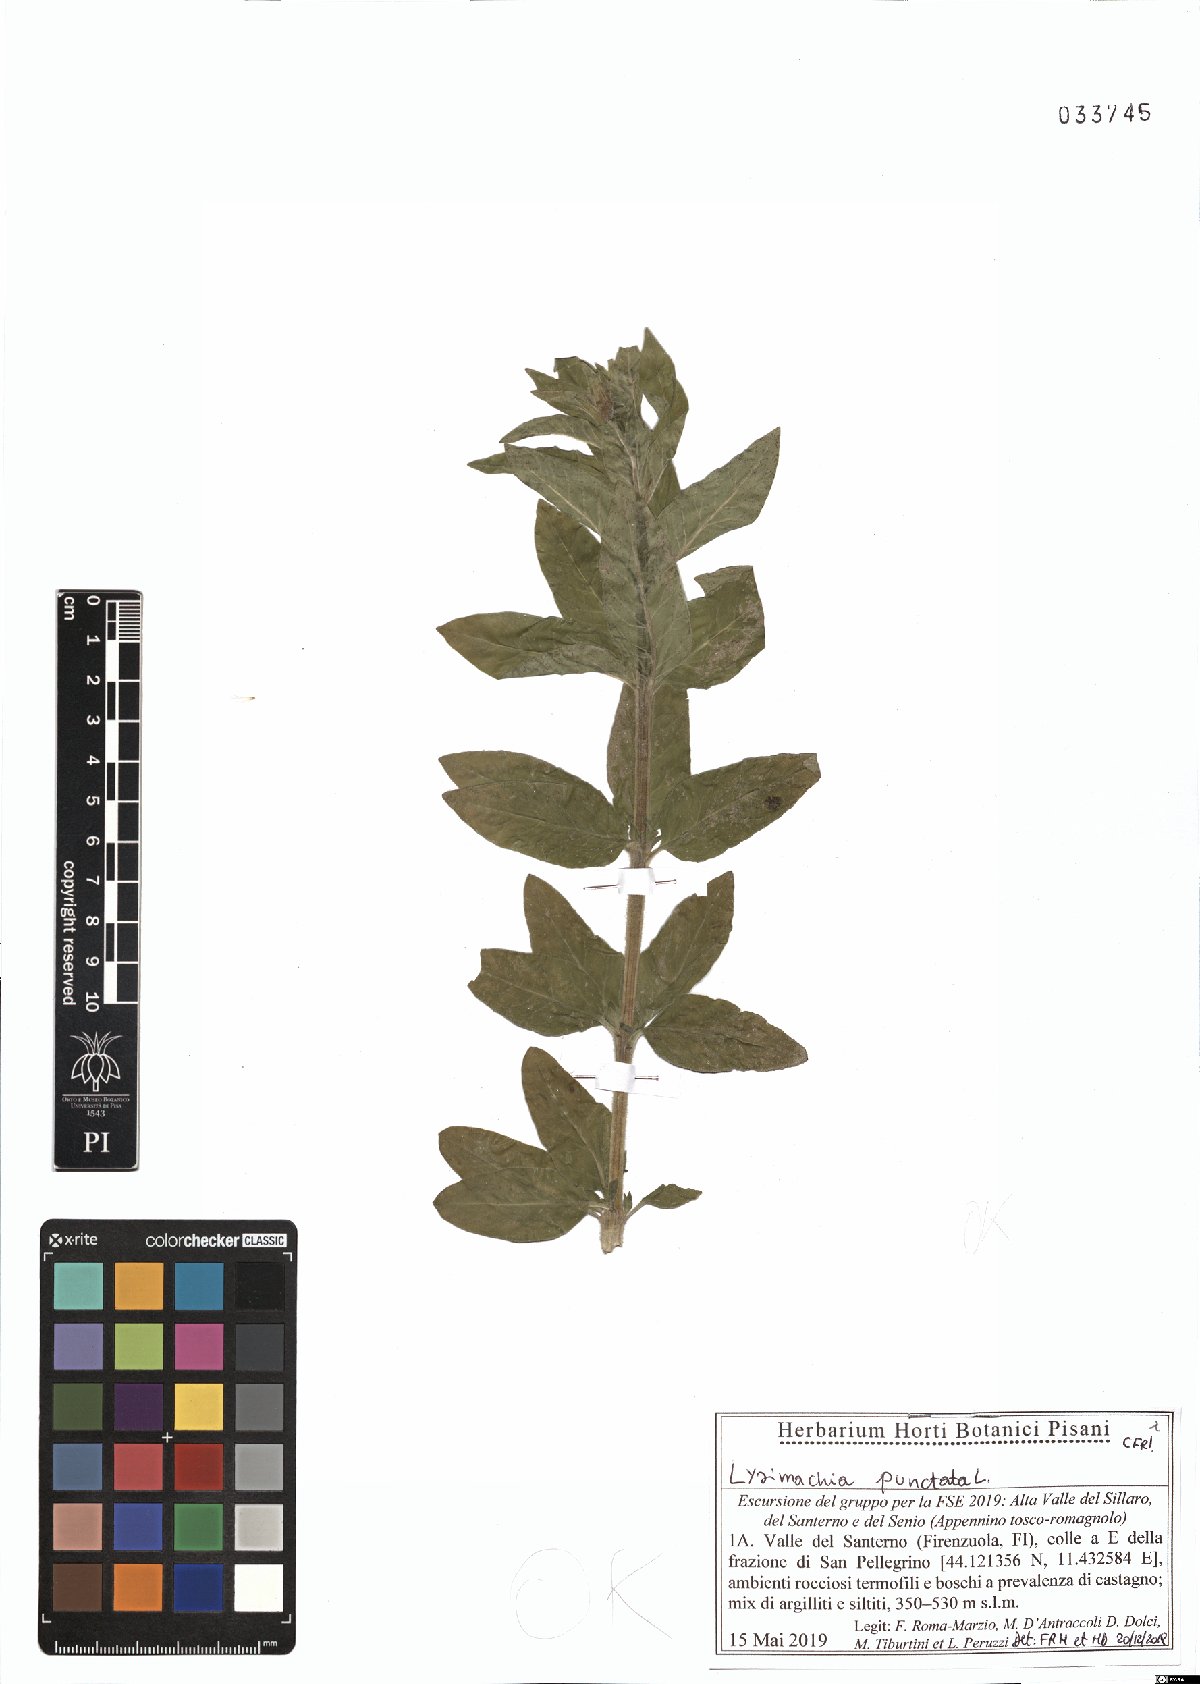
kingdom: Plantae
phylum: Tracheophyta
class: Magnoliopsida
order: Ericales
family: Primulaceae
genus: Lysimachia
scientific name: Lysimachia punctata
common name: Dotted loosestrife
